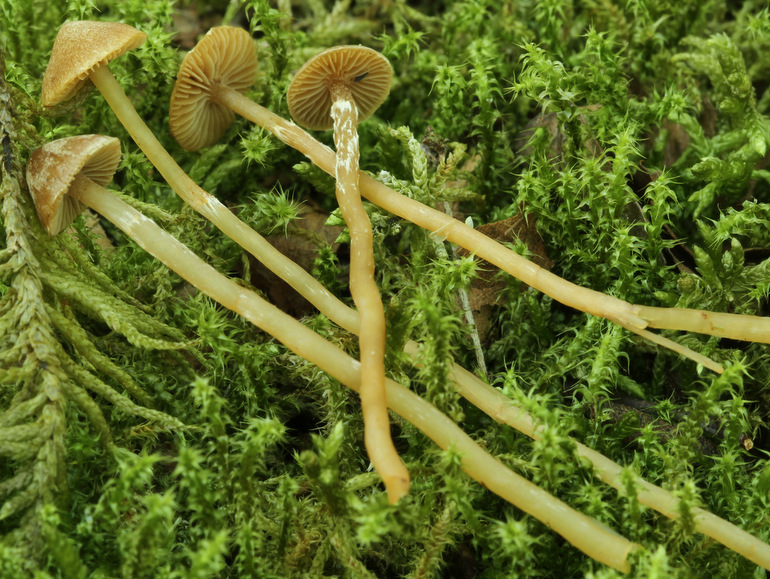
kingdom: Fungi
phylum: Basidiomycota
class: Agaricomycetes
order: Agaricales
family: Hymenogastraceae
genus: Galerina
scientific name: Galerina paludosa
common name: mose-hjelmhat
